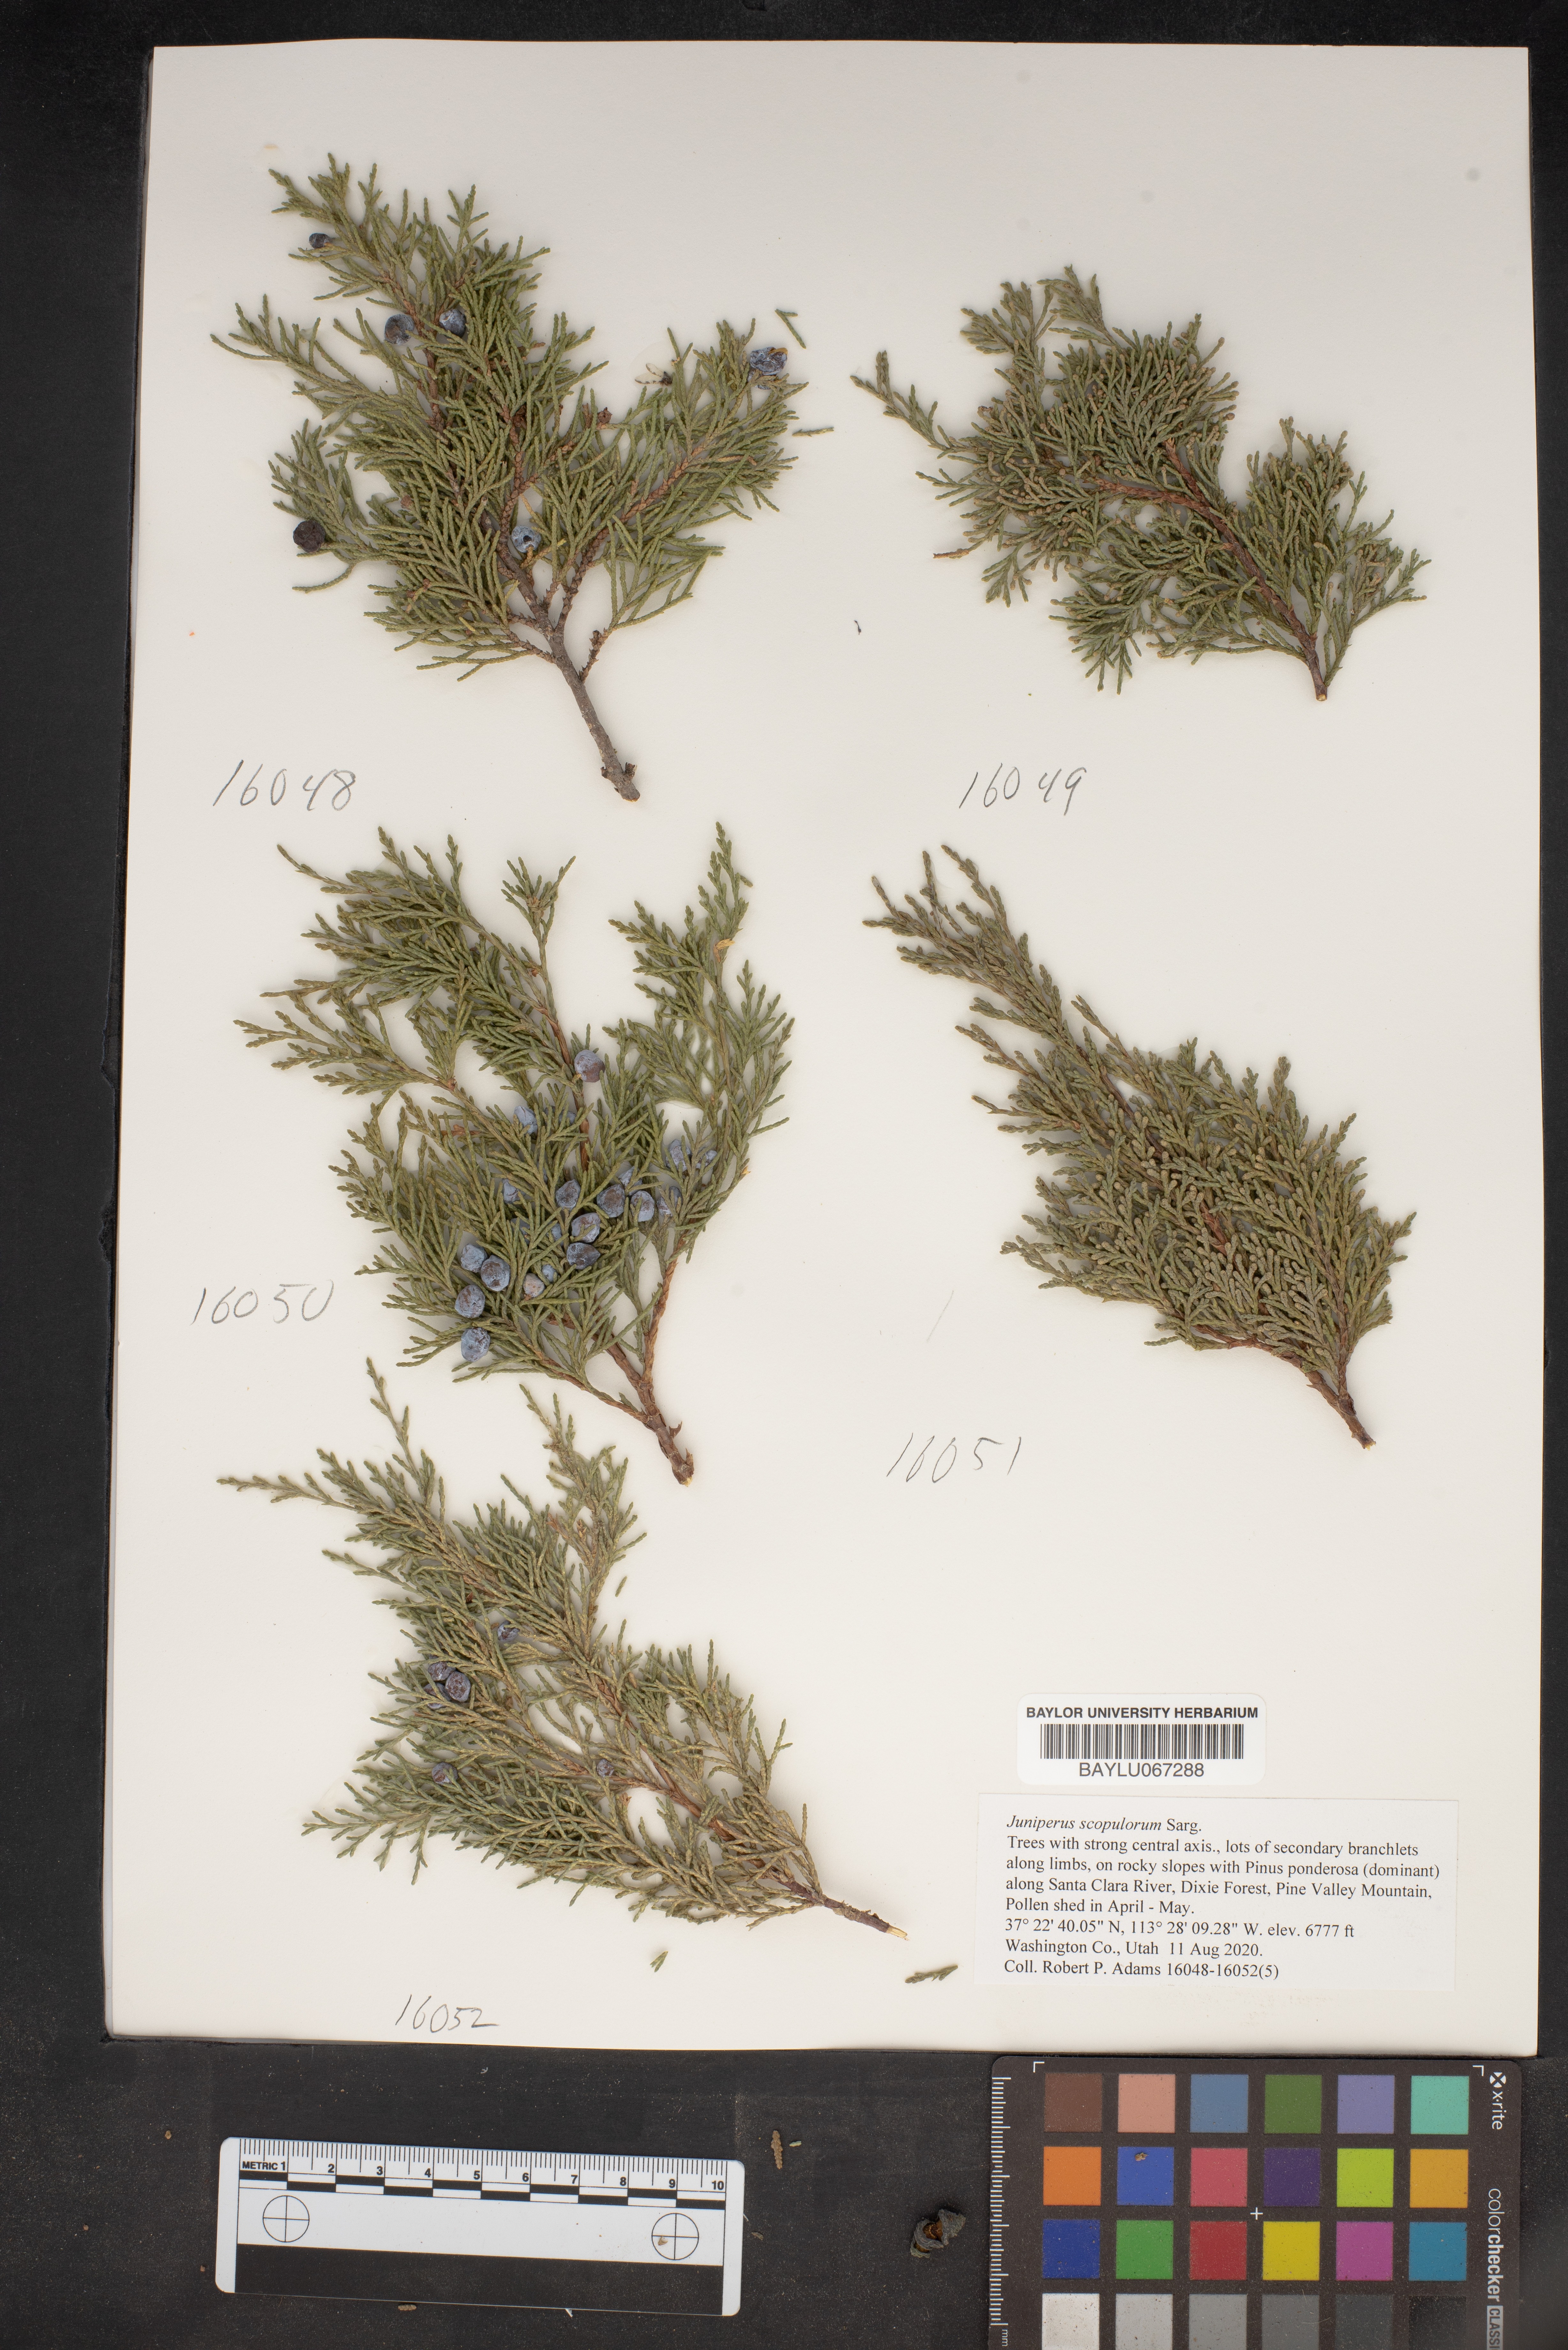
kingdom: Plantae
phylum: Tracheophyta
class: Pinopsida
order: Pinales
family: Cupressaceae
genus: Juniperus
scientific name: Juniperus scopulorum
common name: Rocky mountain juniper
